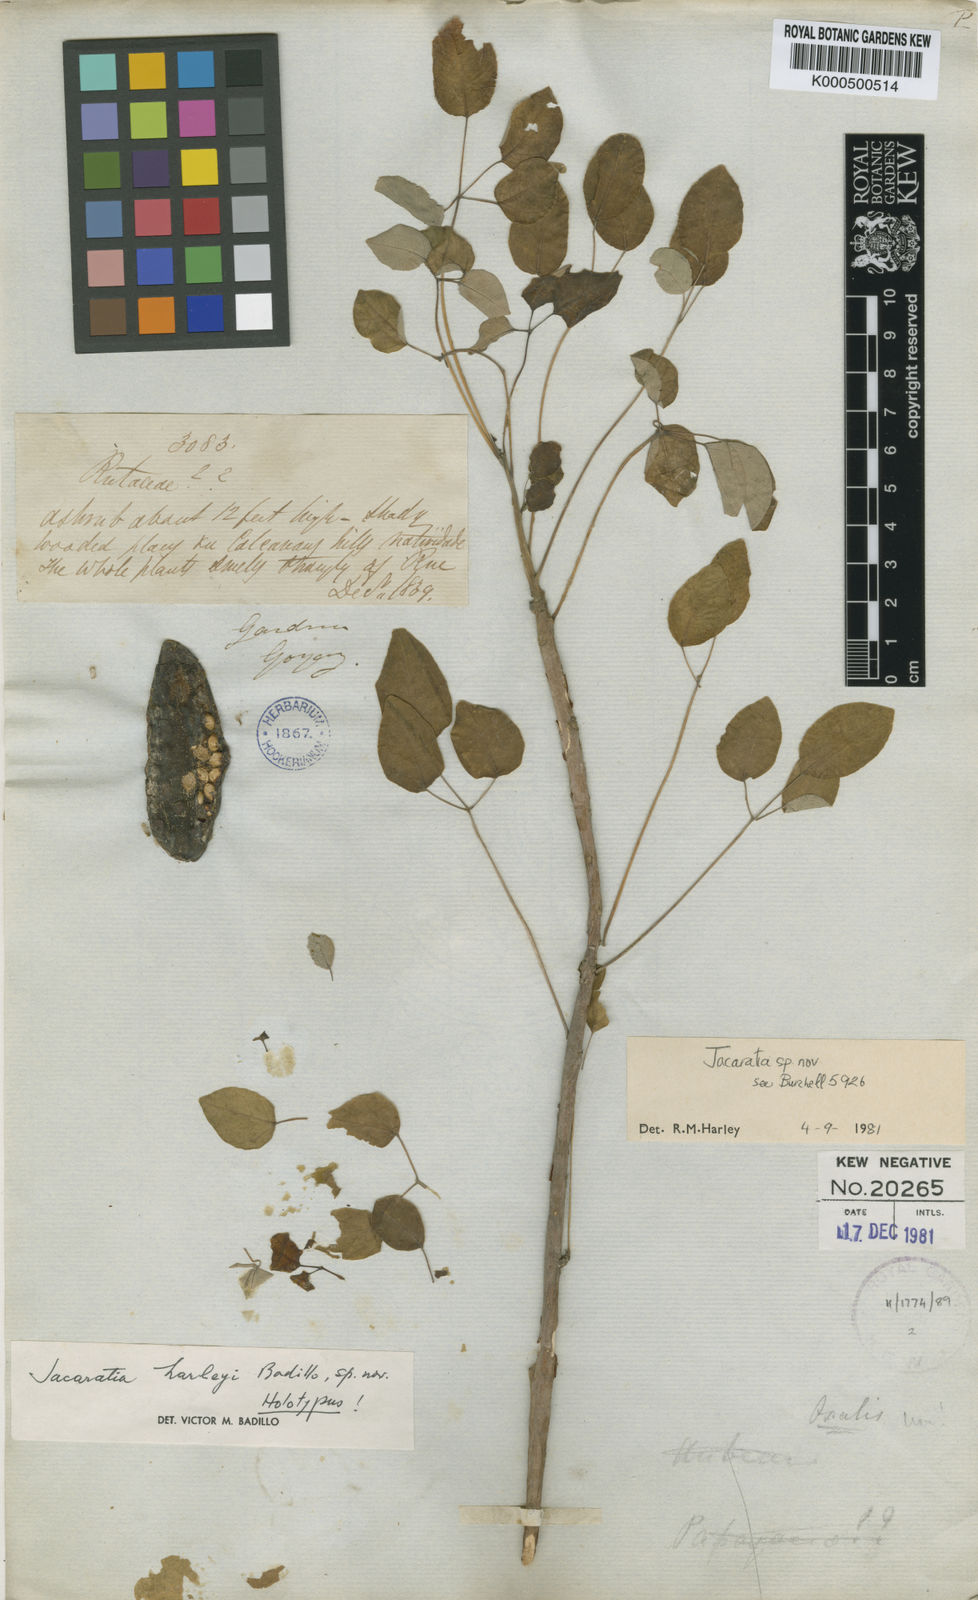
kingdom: Plantae
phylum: Tracheophyta
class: Magnoliopsida
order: Brassicales
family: Caricaceae
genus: Jacaratia
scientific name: Jacaratia corumbensis
